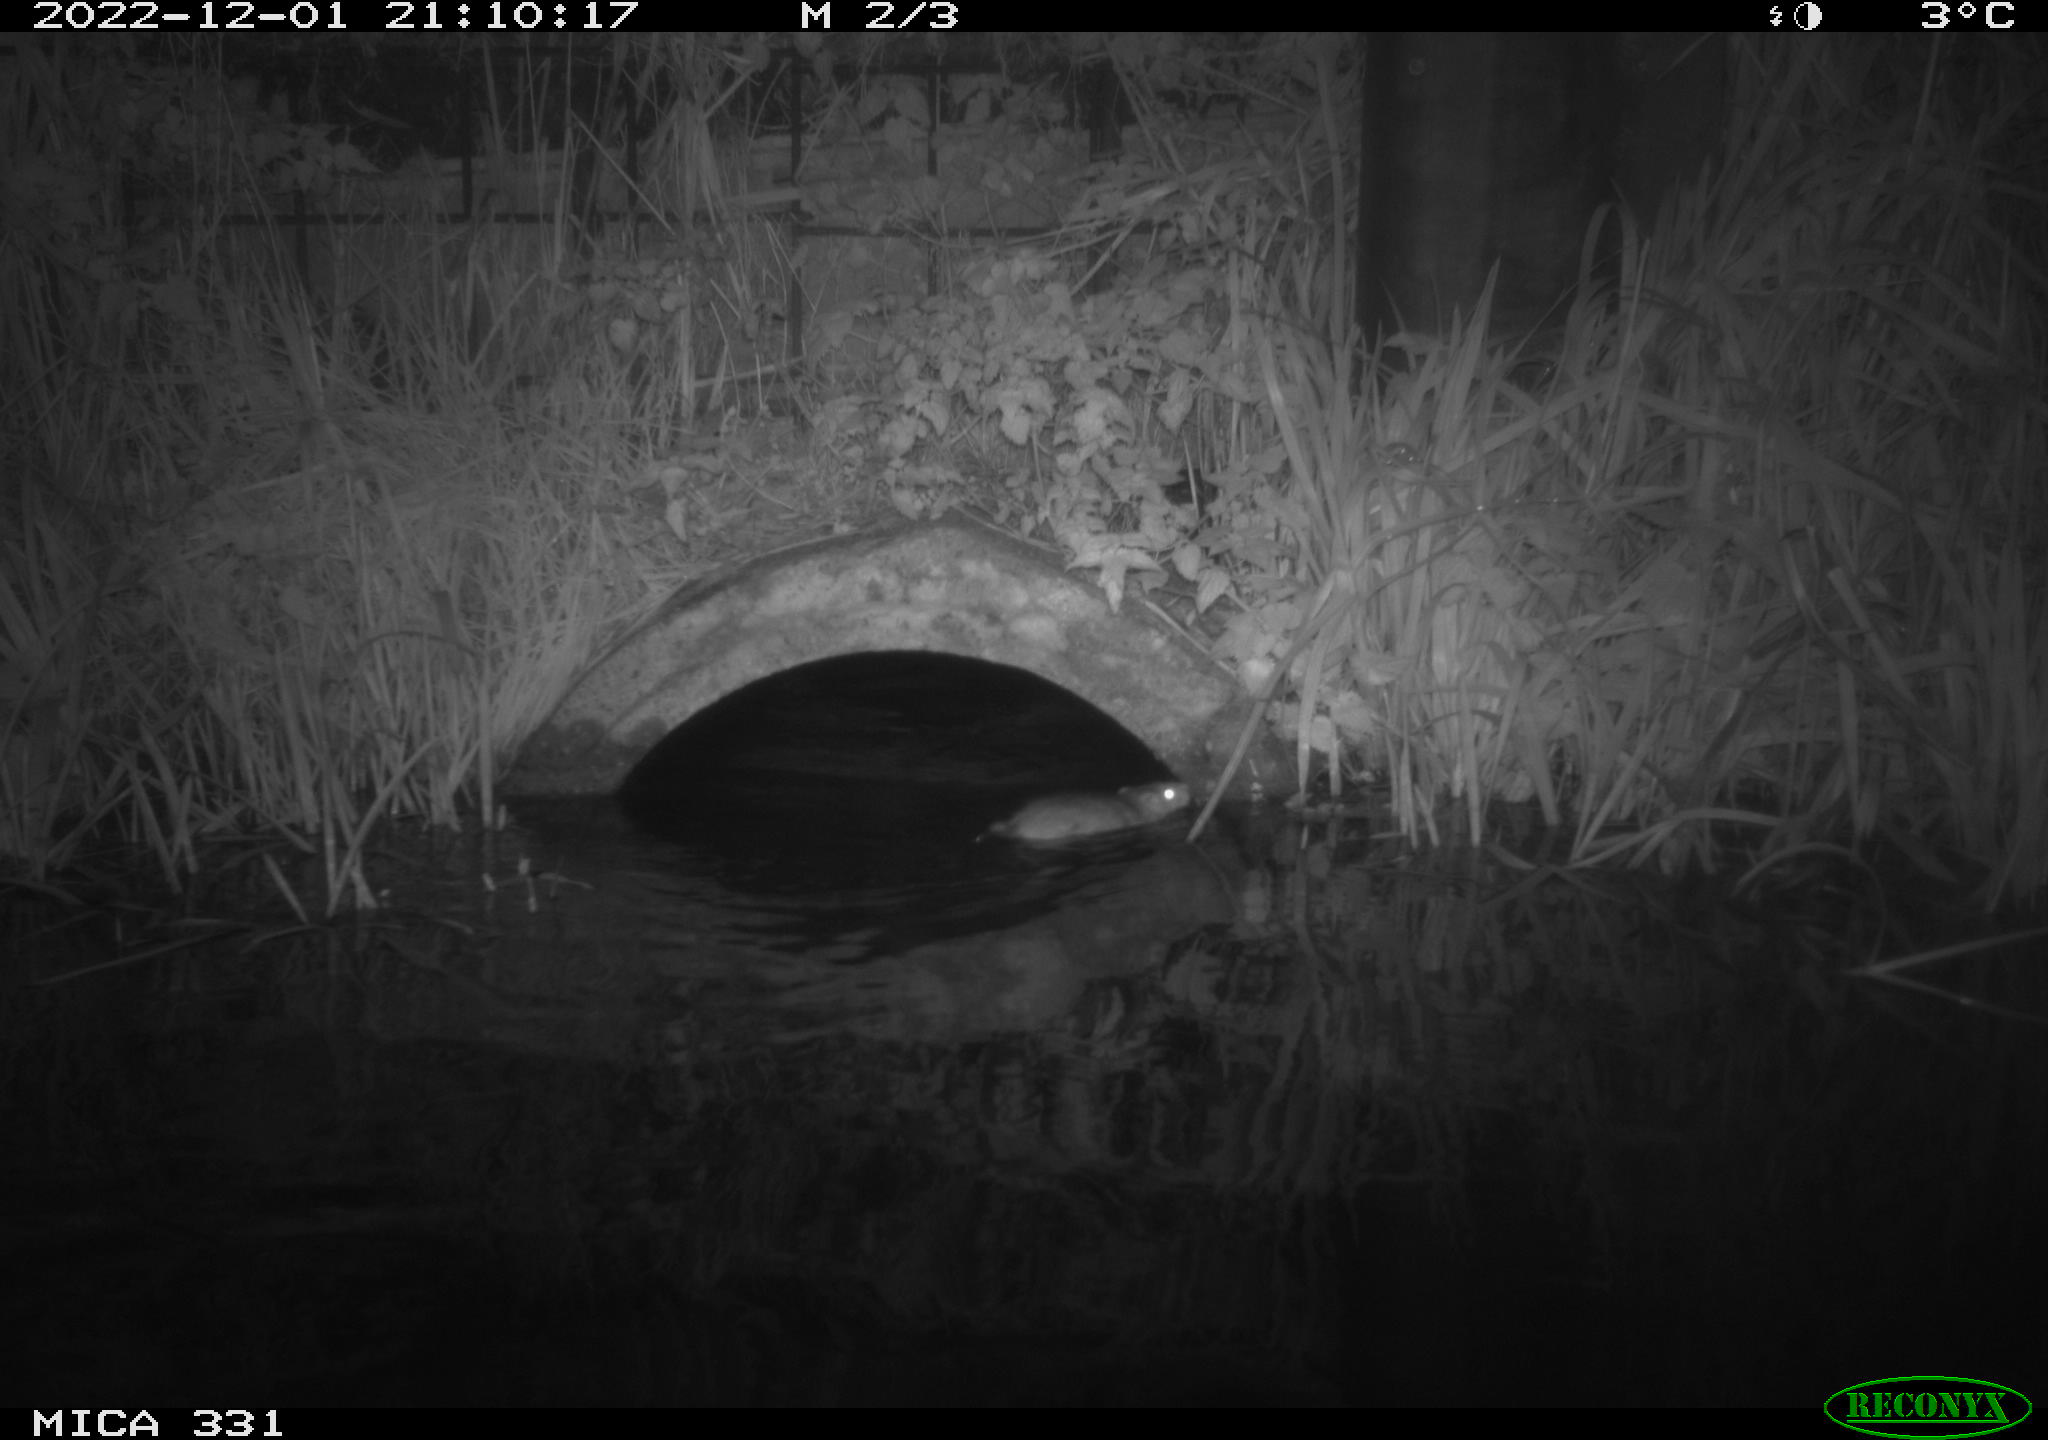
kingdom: Animalia
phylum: Chordata
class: Mammalia
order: Rodentia
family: Muridae
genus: Rattus
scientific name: Rattus norvegicus
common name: Brown rat
